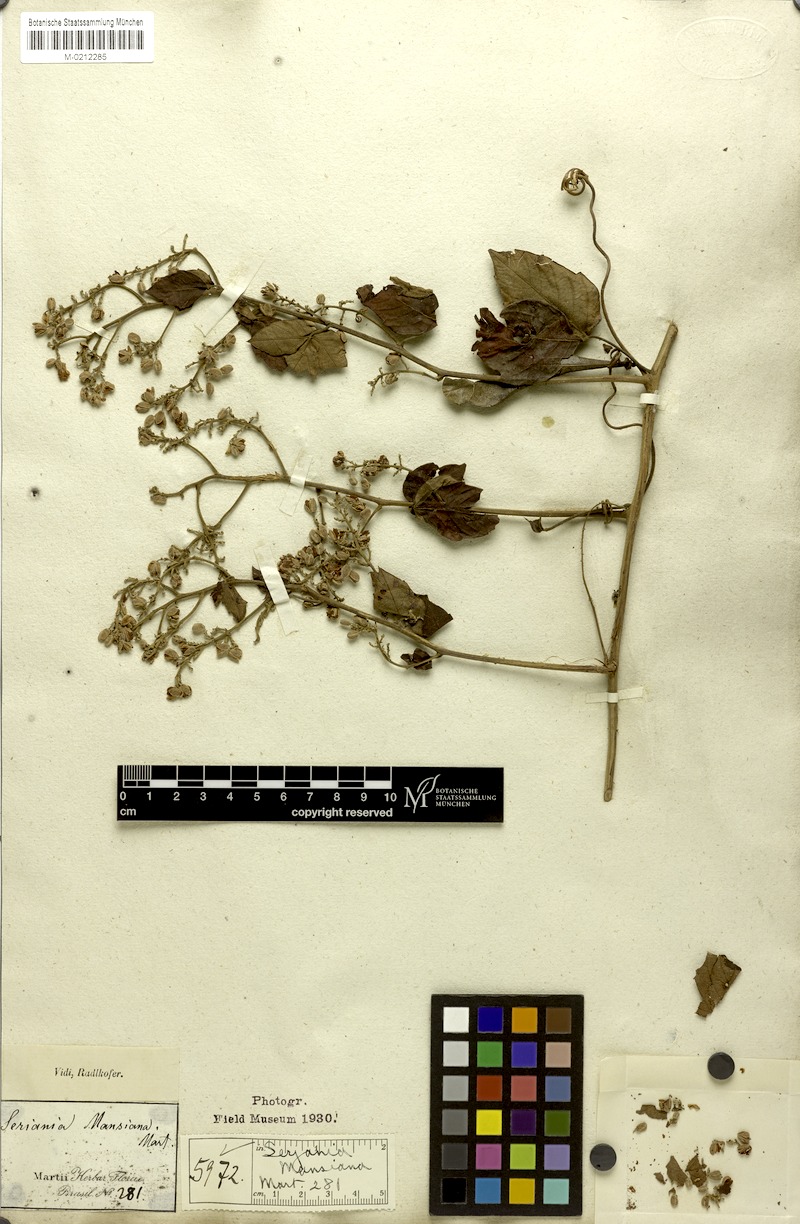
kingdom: Plantae
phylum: Tracheophyta
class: Magnoliopsida
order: Sapindales
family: Sapindaceae
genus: Serjania
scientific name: Serjania mansiana
